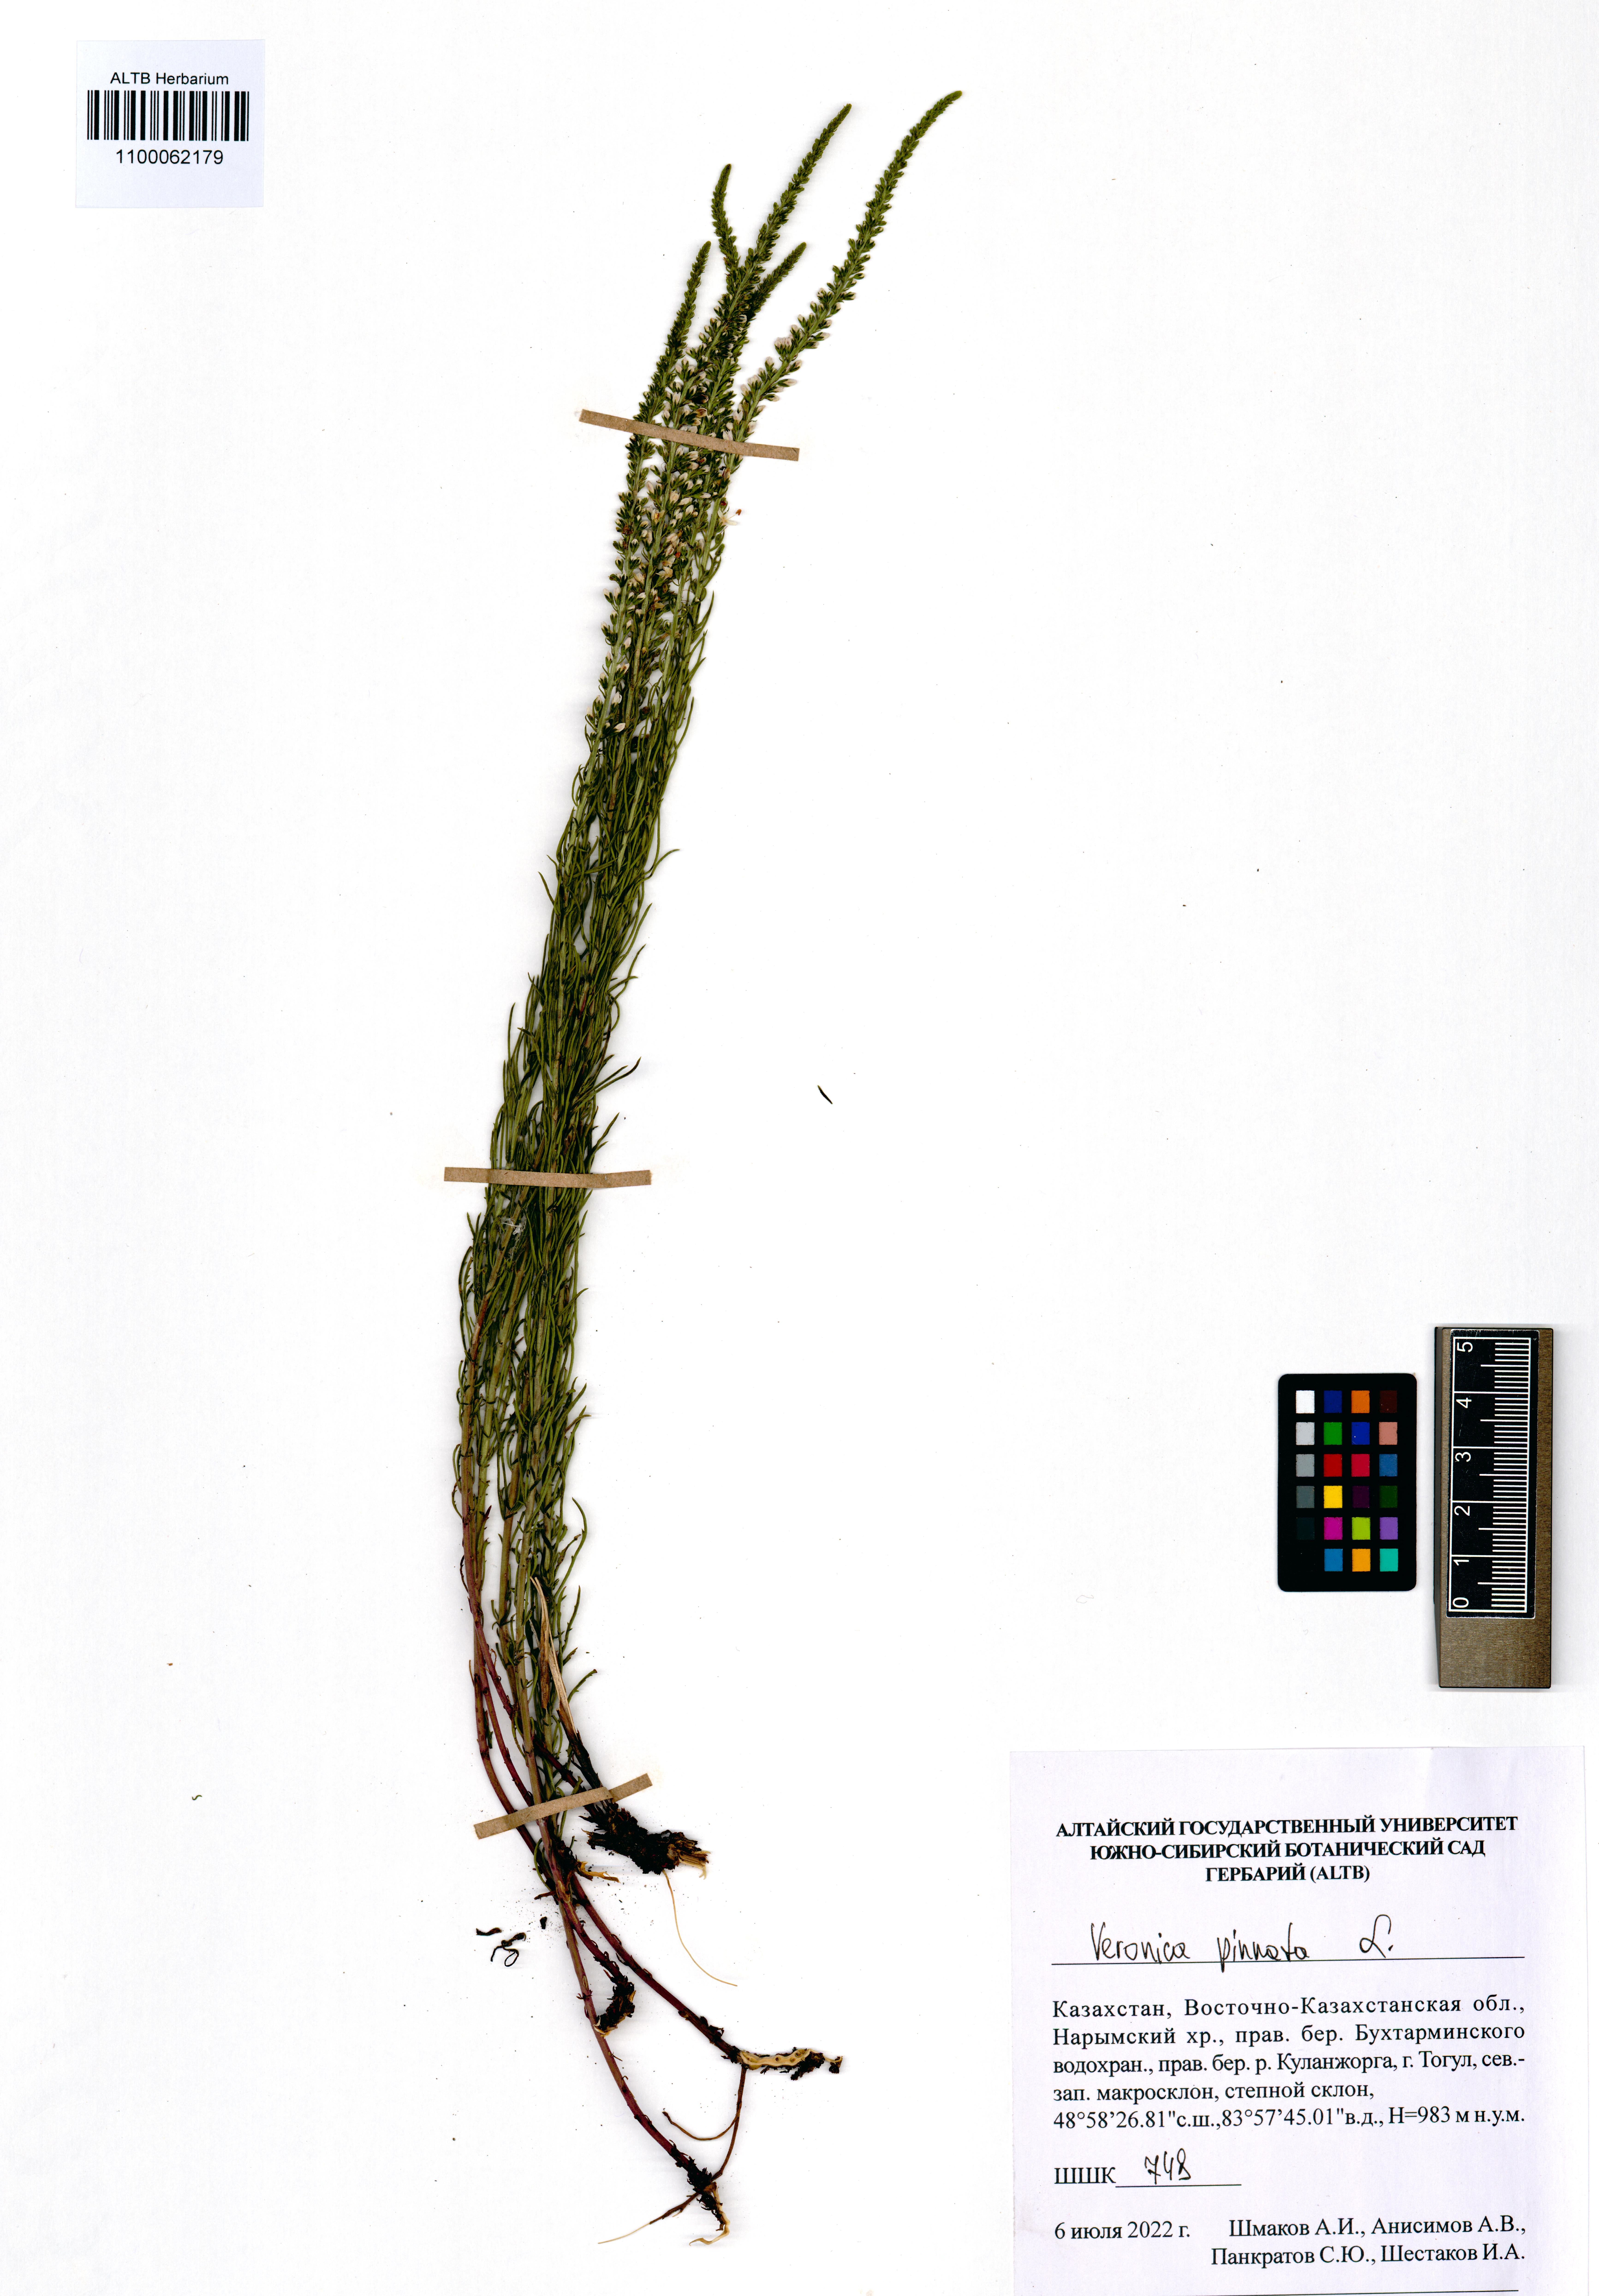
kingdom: Plantae
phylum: Tracheophyta
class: Magnoliopsida
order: Lamiales
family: Plantaginaceae
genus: Veronica
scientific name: Veronica pinnata
